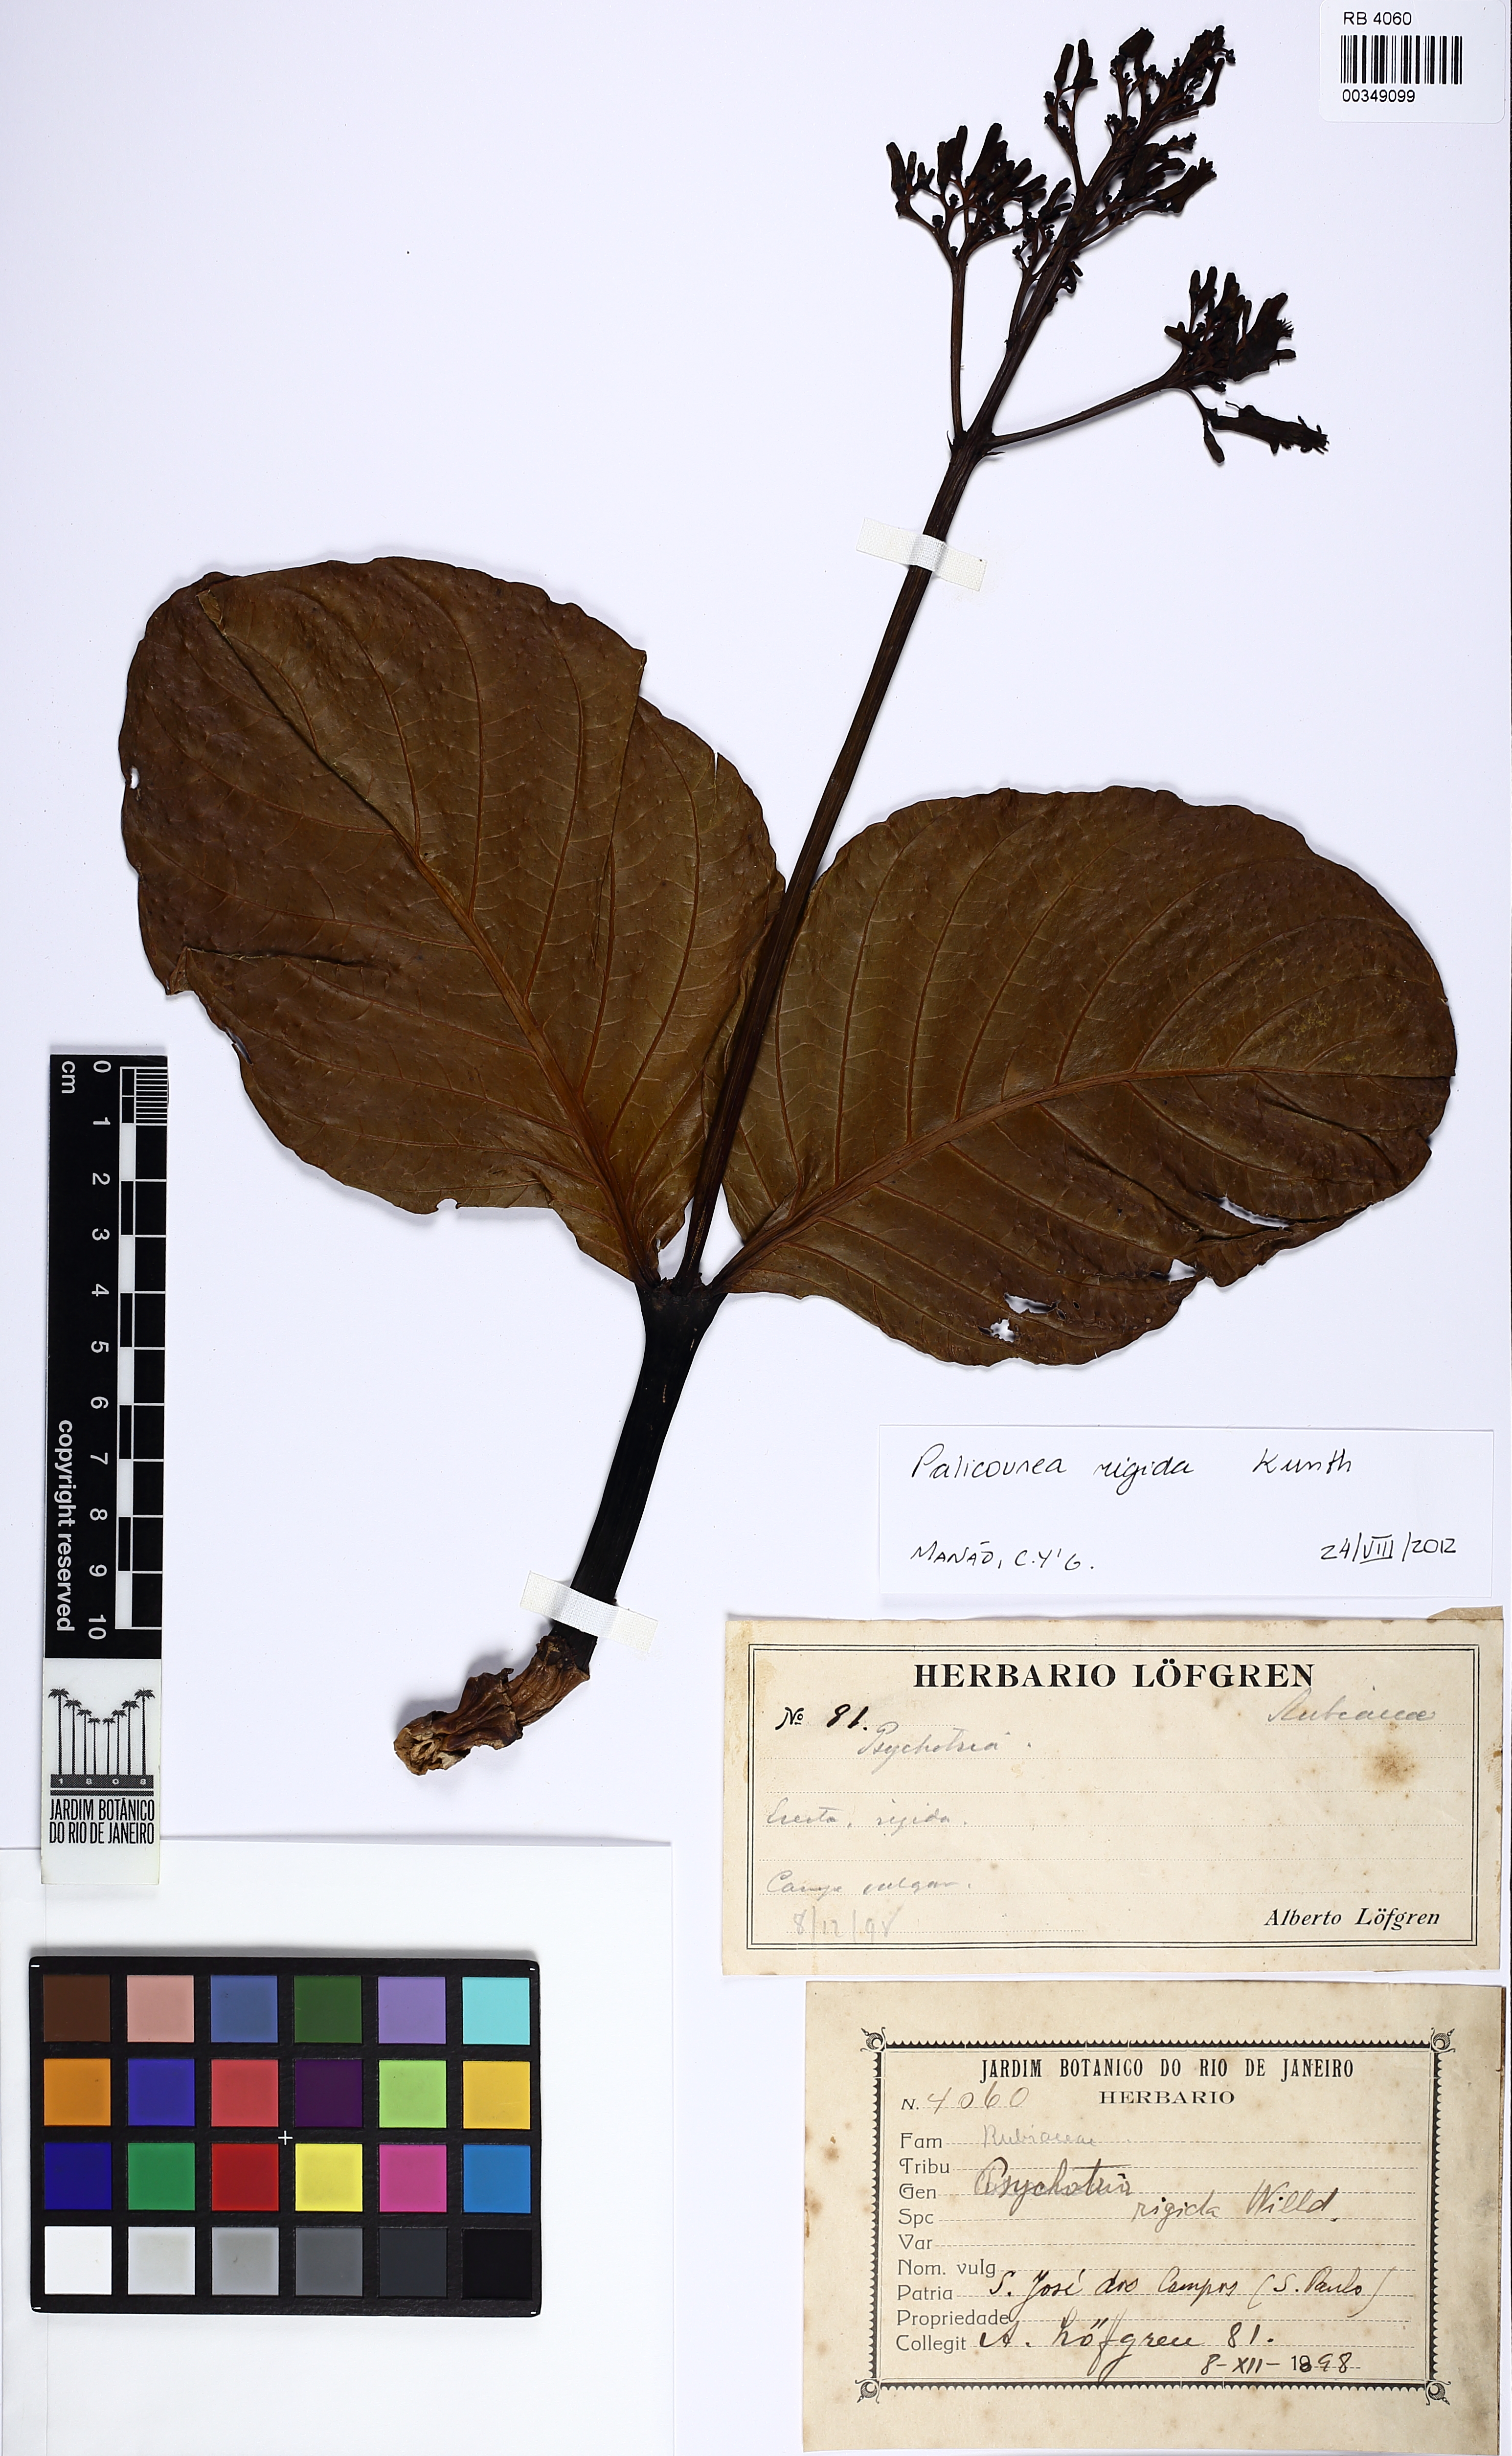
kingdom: Plantae
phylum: Tracheophyta
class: Magnoliopsida
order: Gentianales
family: Rubiaceae
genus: Palicourea
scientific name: Palicourea rigida
